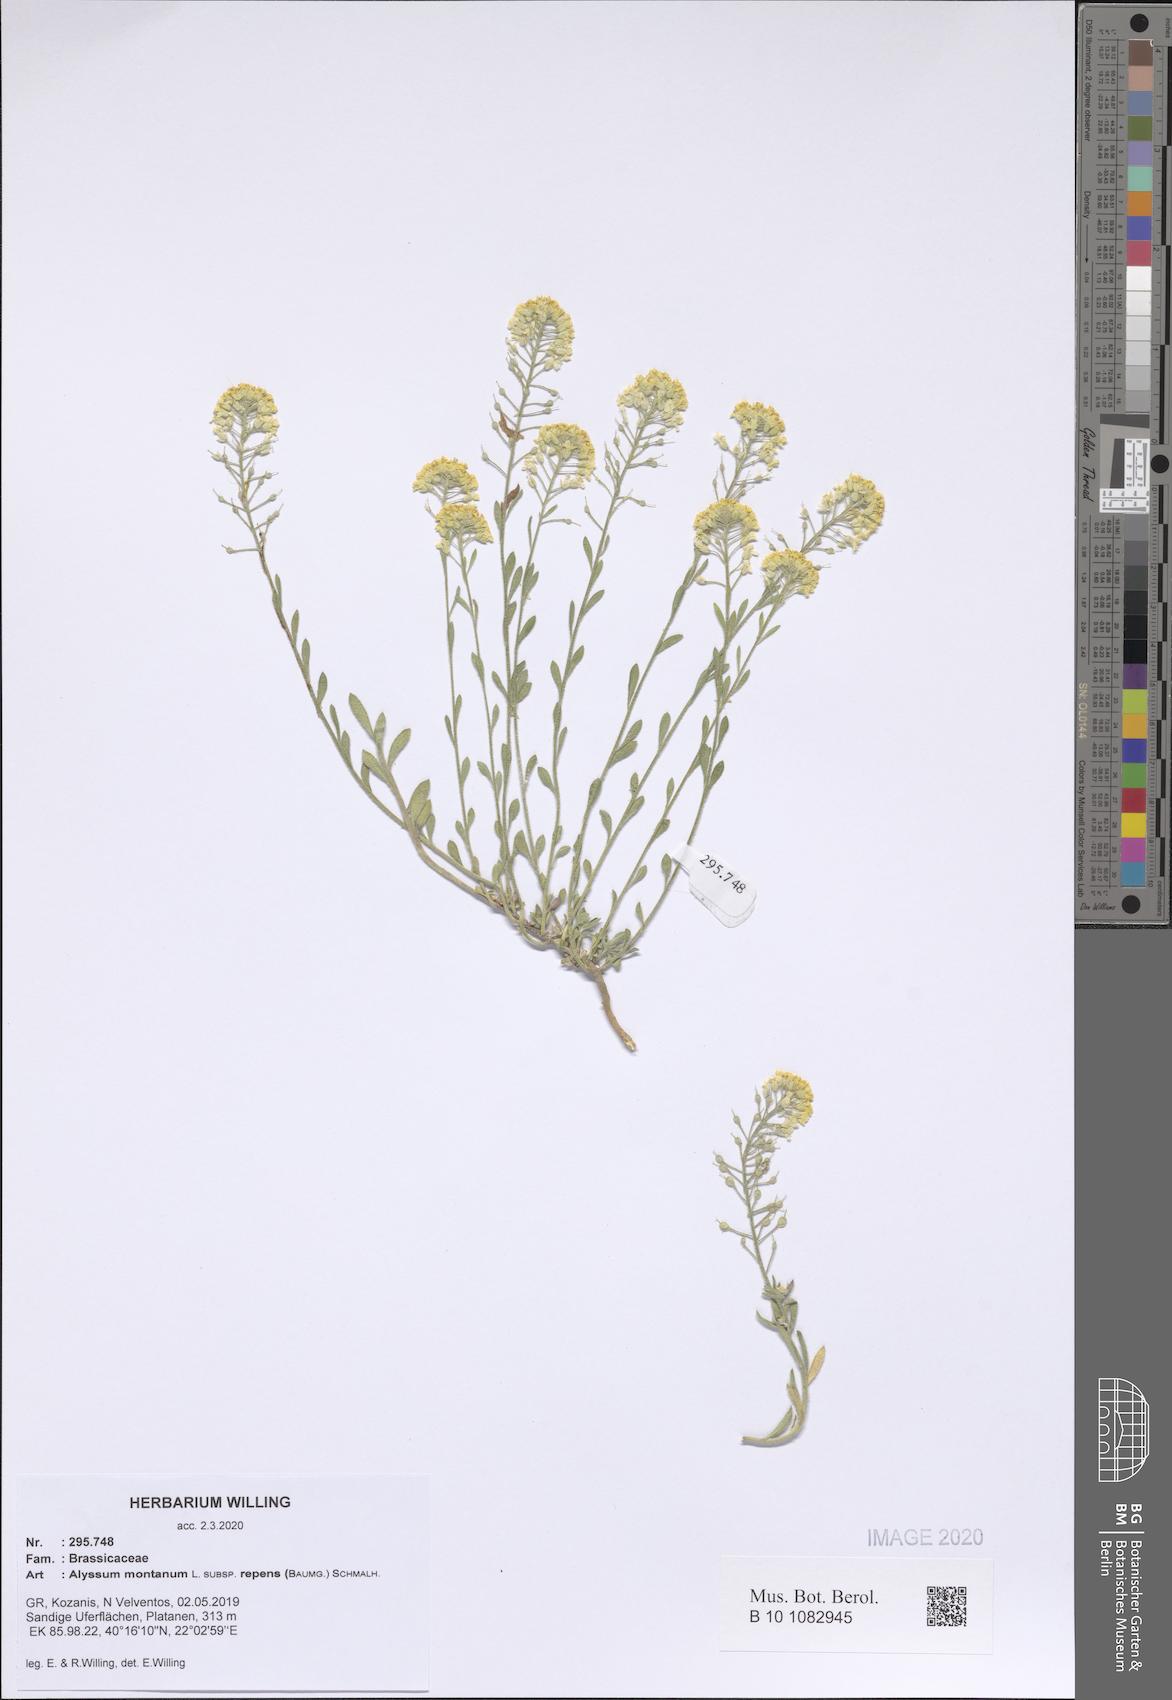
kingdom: Plantae
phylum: Tracheophyta
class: Magnoliopsida
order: Brassicales
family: Brassicaceae
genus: Alyssum
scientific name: Alyssum trichostachyum
